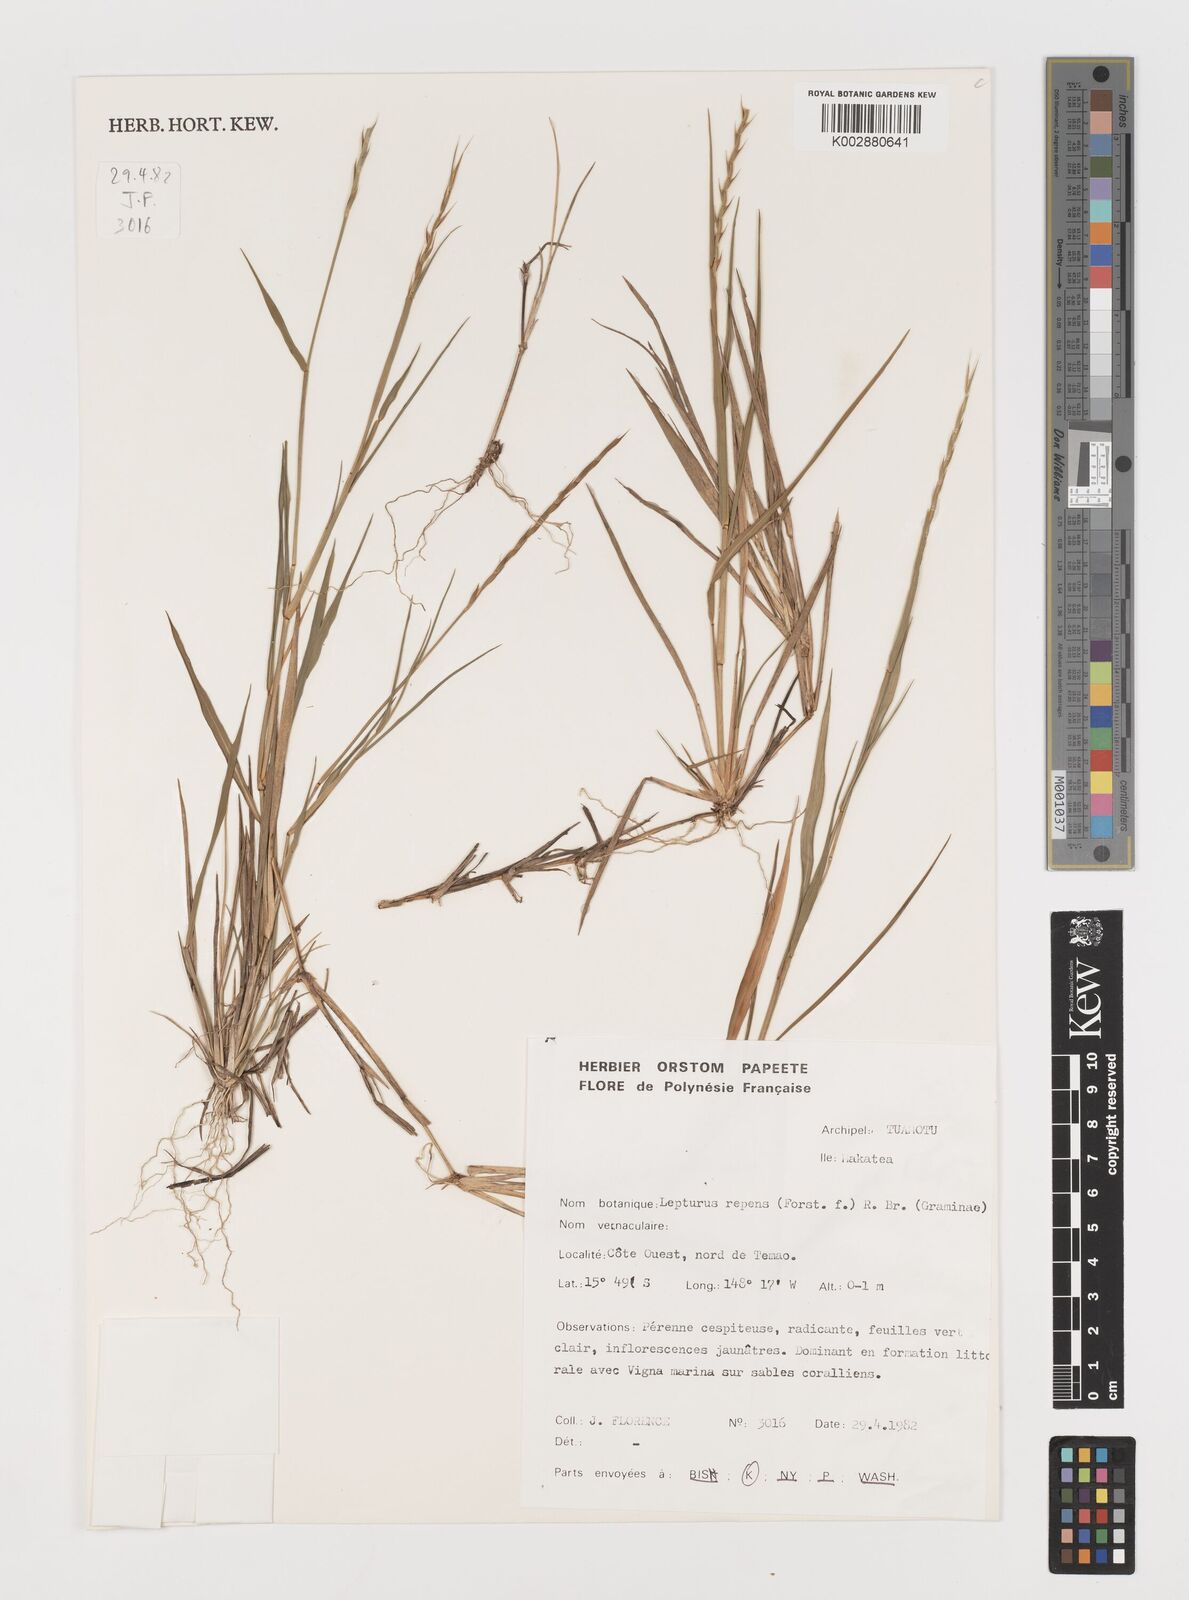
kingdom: Plantae
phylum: Tracheophyta
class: Liliopsida
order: Poales
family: Poaceae
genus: Lepturus
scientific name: Lepturus repens
